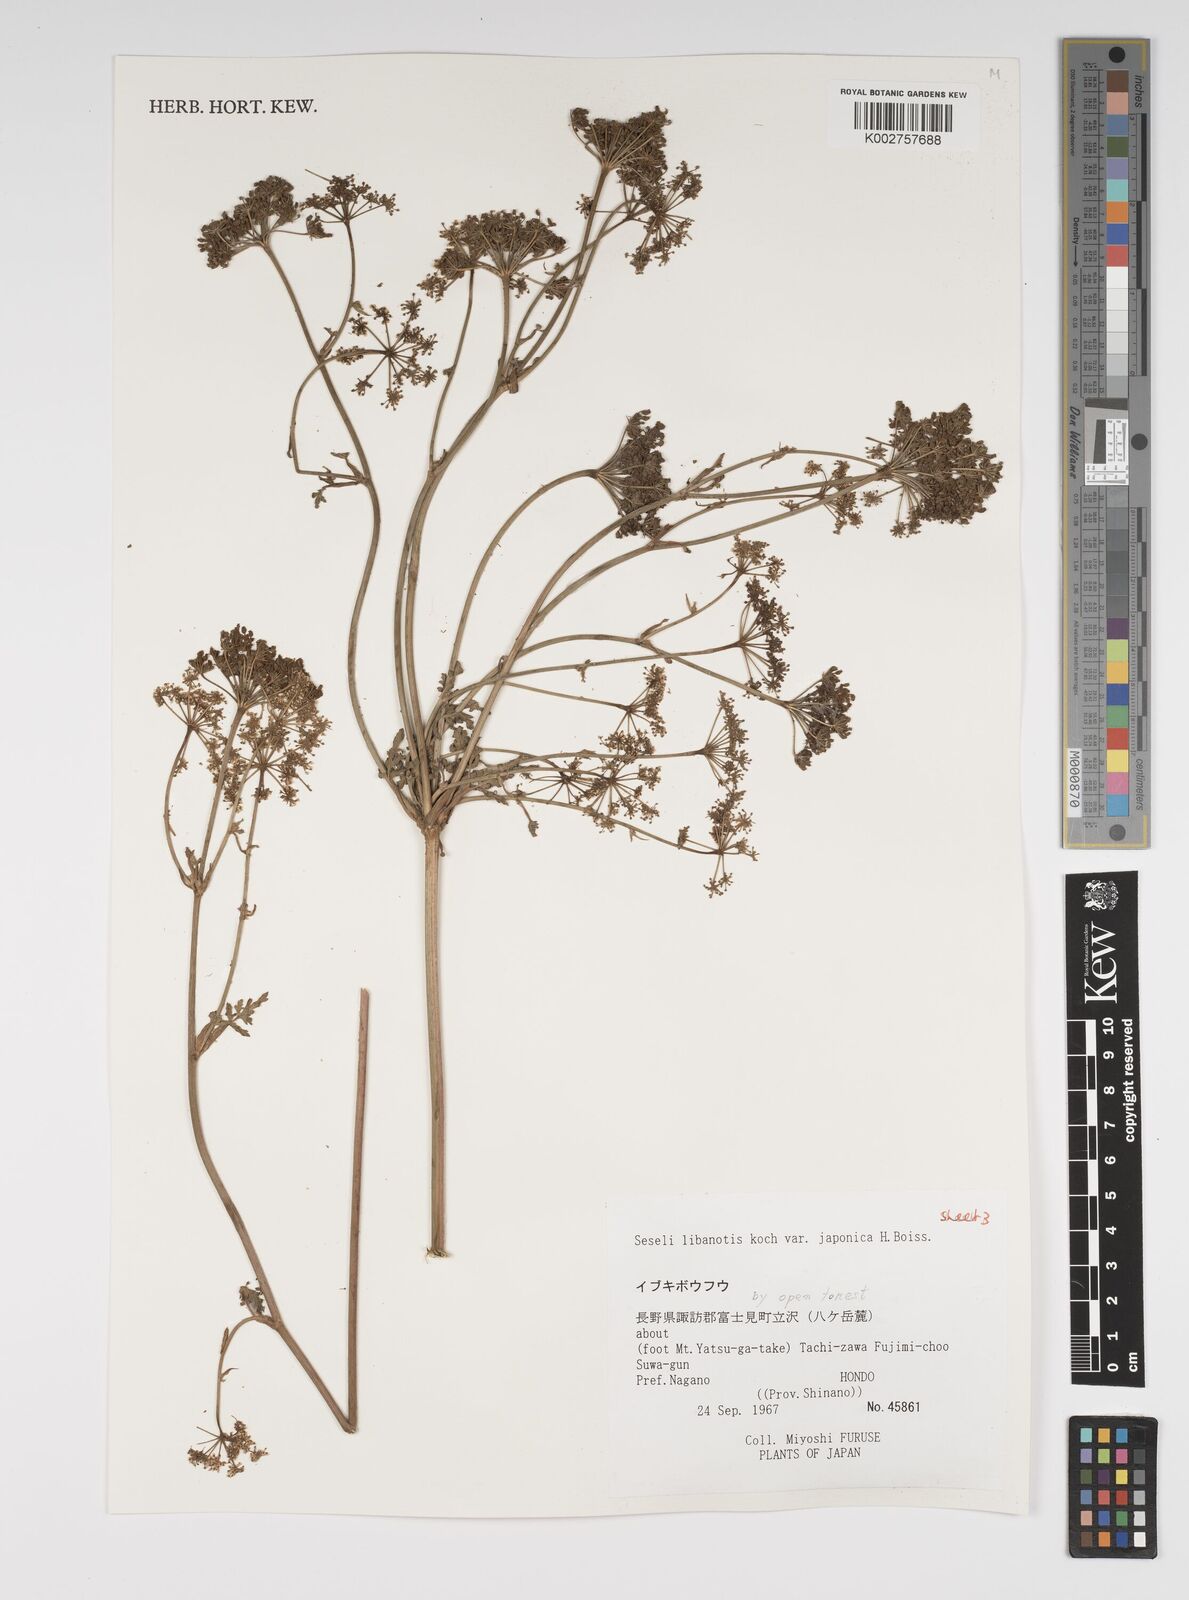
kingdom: Plantae
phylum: Tracheophyta
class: Magnoliopsida
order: Apiales
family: Apiaceae
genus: Seseli
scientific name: Seseli libanotis
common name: Mooncarrot
